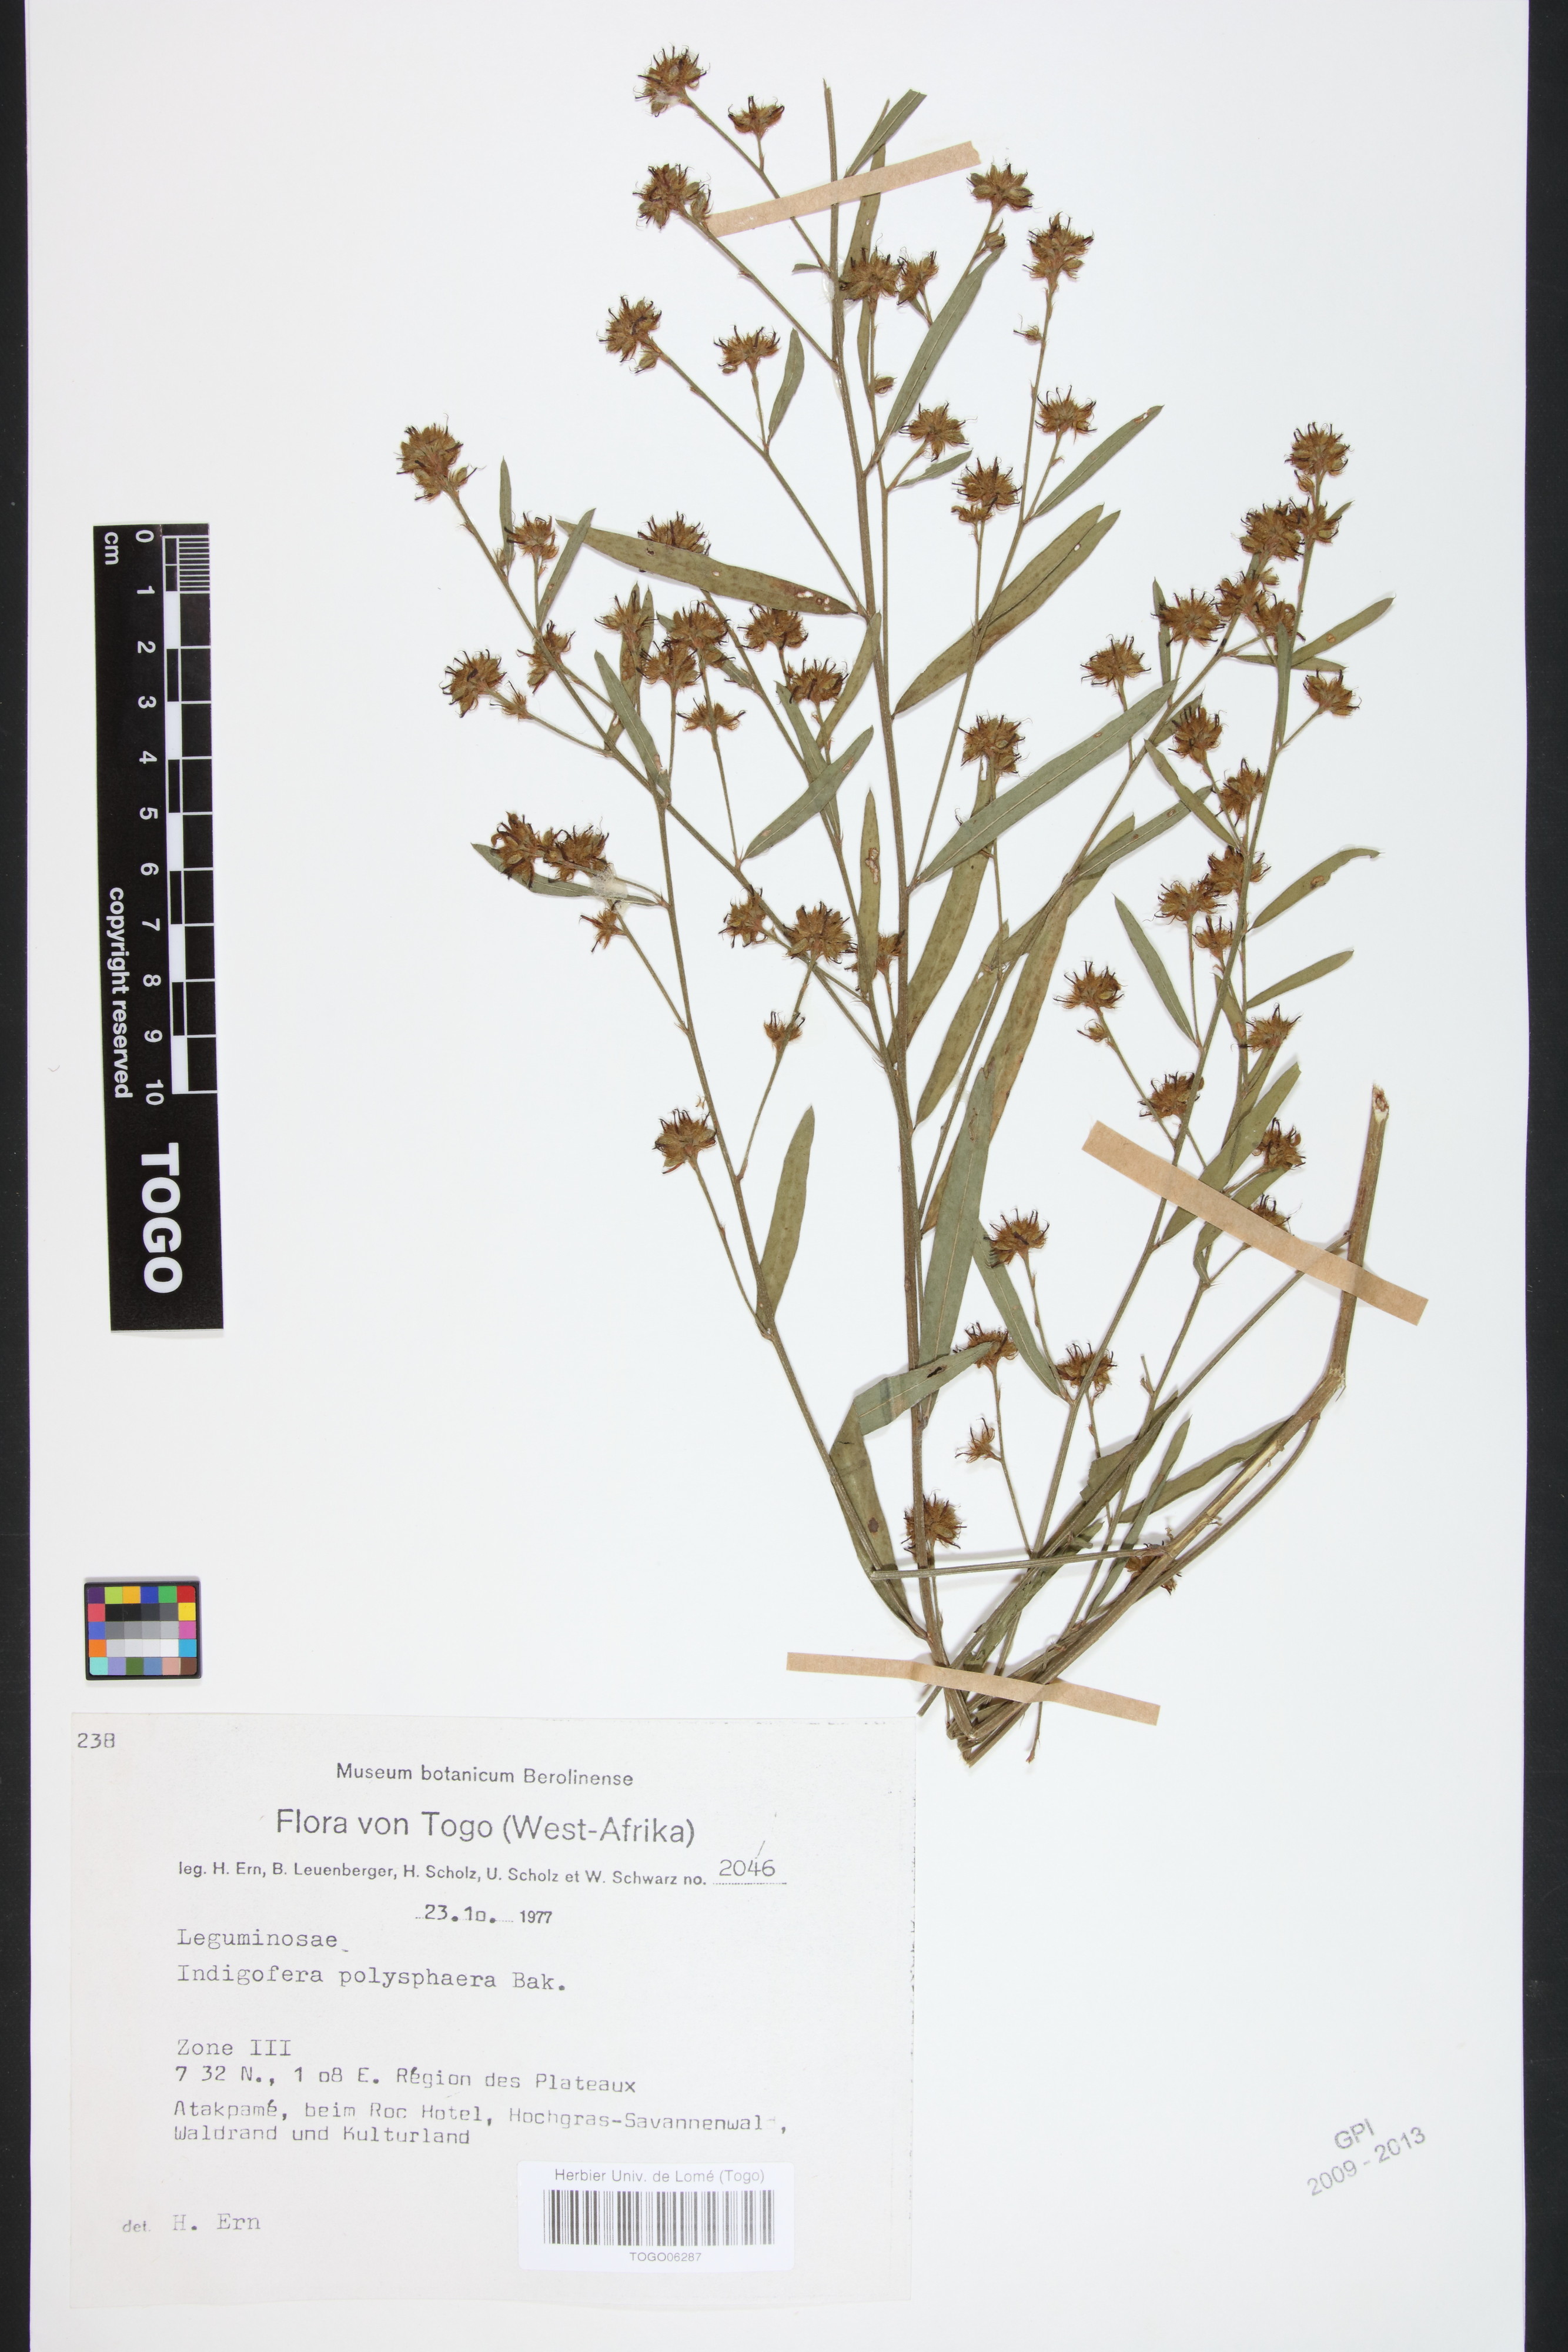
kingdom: Plantae
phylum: Tracheophyta
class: Magnoliopsida
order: Fabales
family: Fabaceae
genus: Indigofera
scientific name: Indigofera polysphaera
